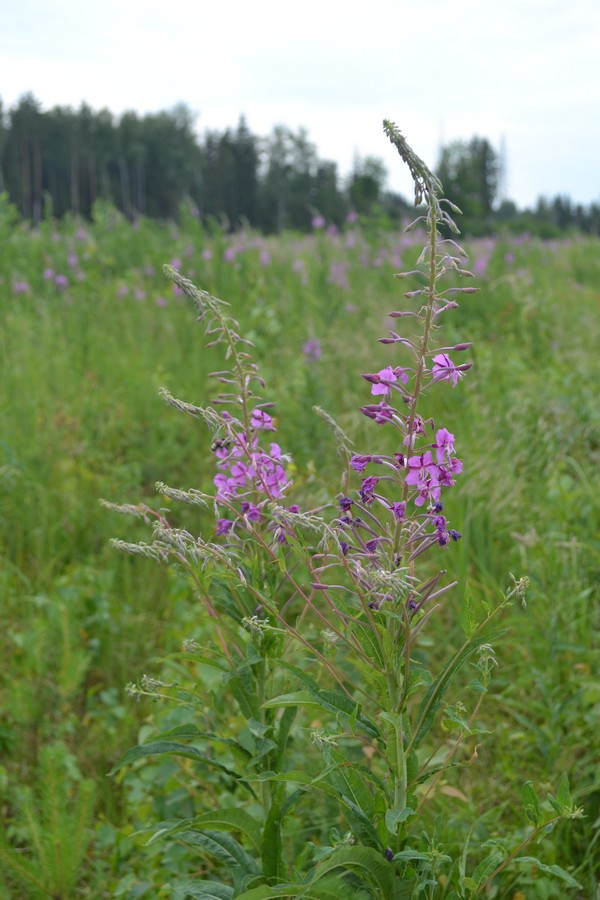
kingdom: Plantae
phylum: Tracheophyta
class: Magnoliopsida
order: Myrtales
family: Onagraceae
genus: Chamaenerion
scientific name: Chamaenerion angustifolium
